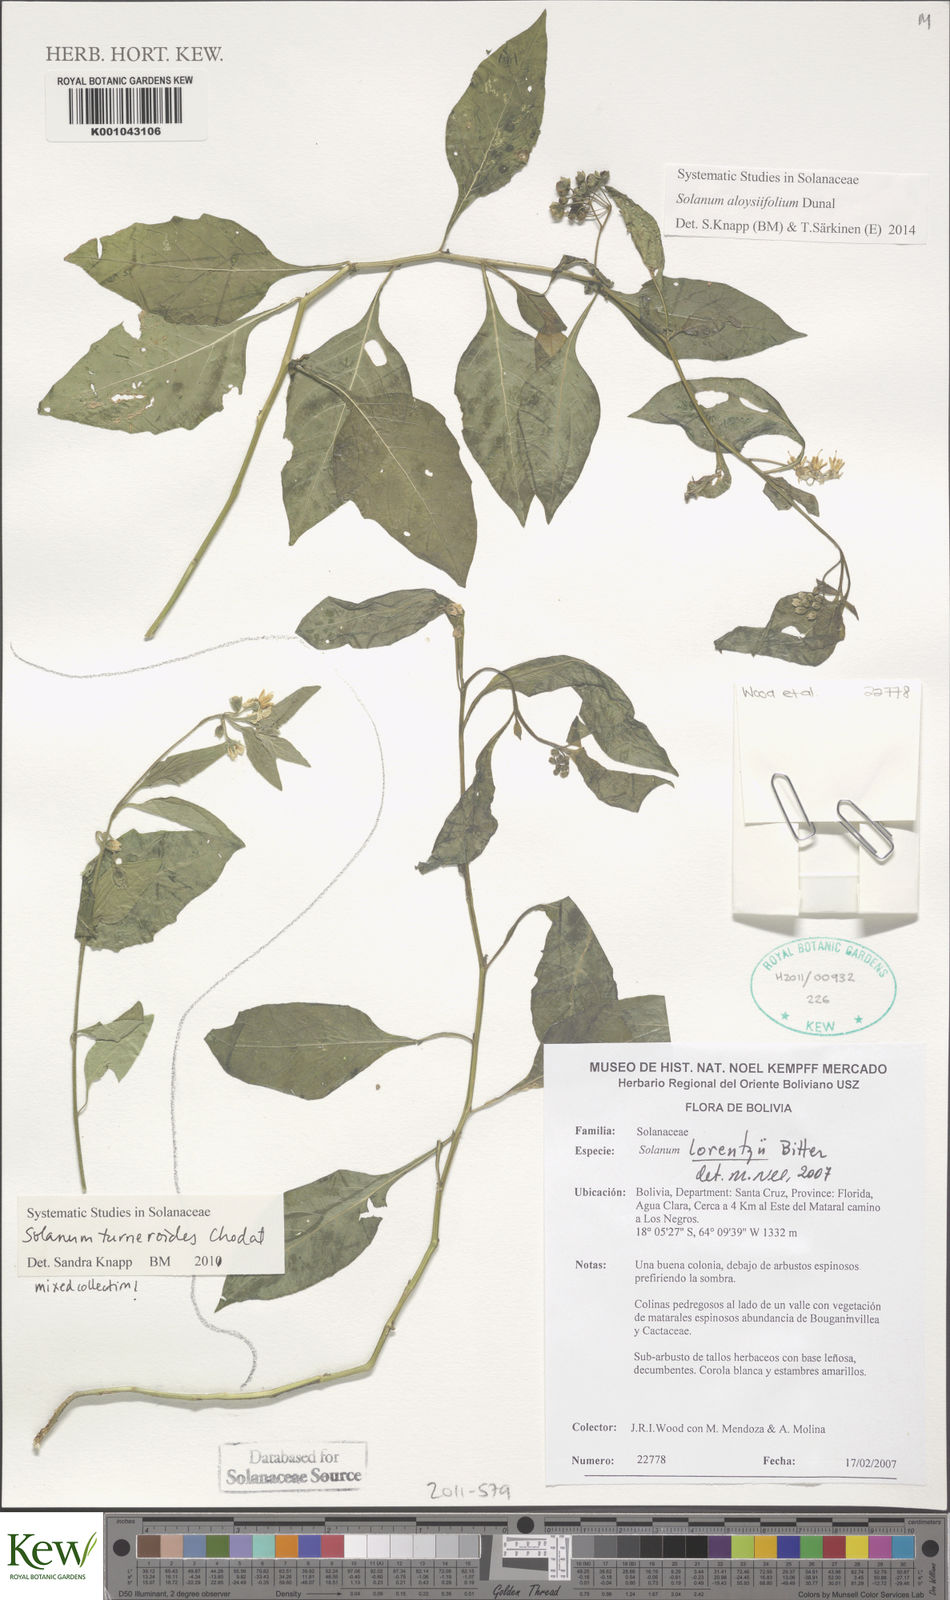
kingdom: Plantae
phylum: Tracheophyta
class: Magnoliopsida
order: Solanales
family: Solanaceae
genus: Solanum
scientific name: Solanum aloysiifolium
